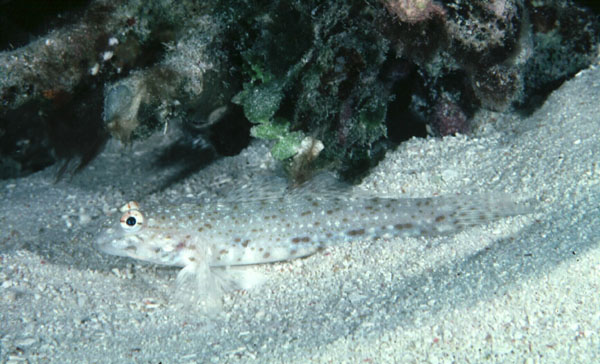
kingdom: Animalia
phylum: Chordata
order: Perciformes
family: Gobiidae
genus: Istigobius
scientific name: Istigobius rigilius
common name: Rigilius goby
